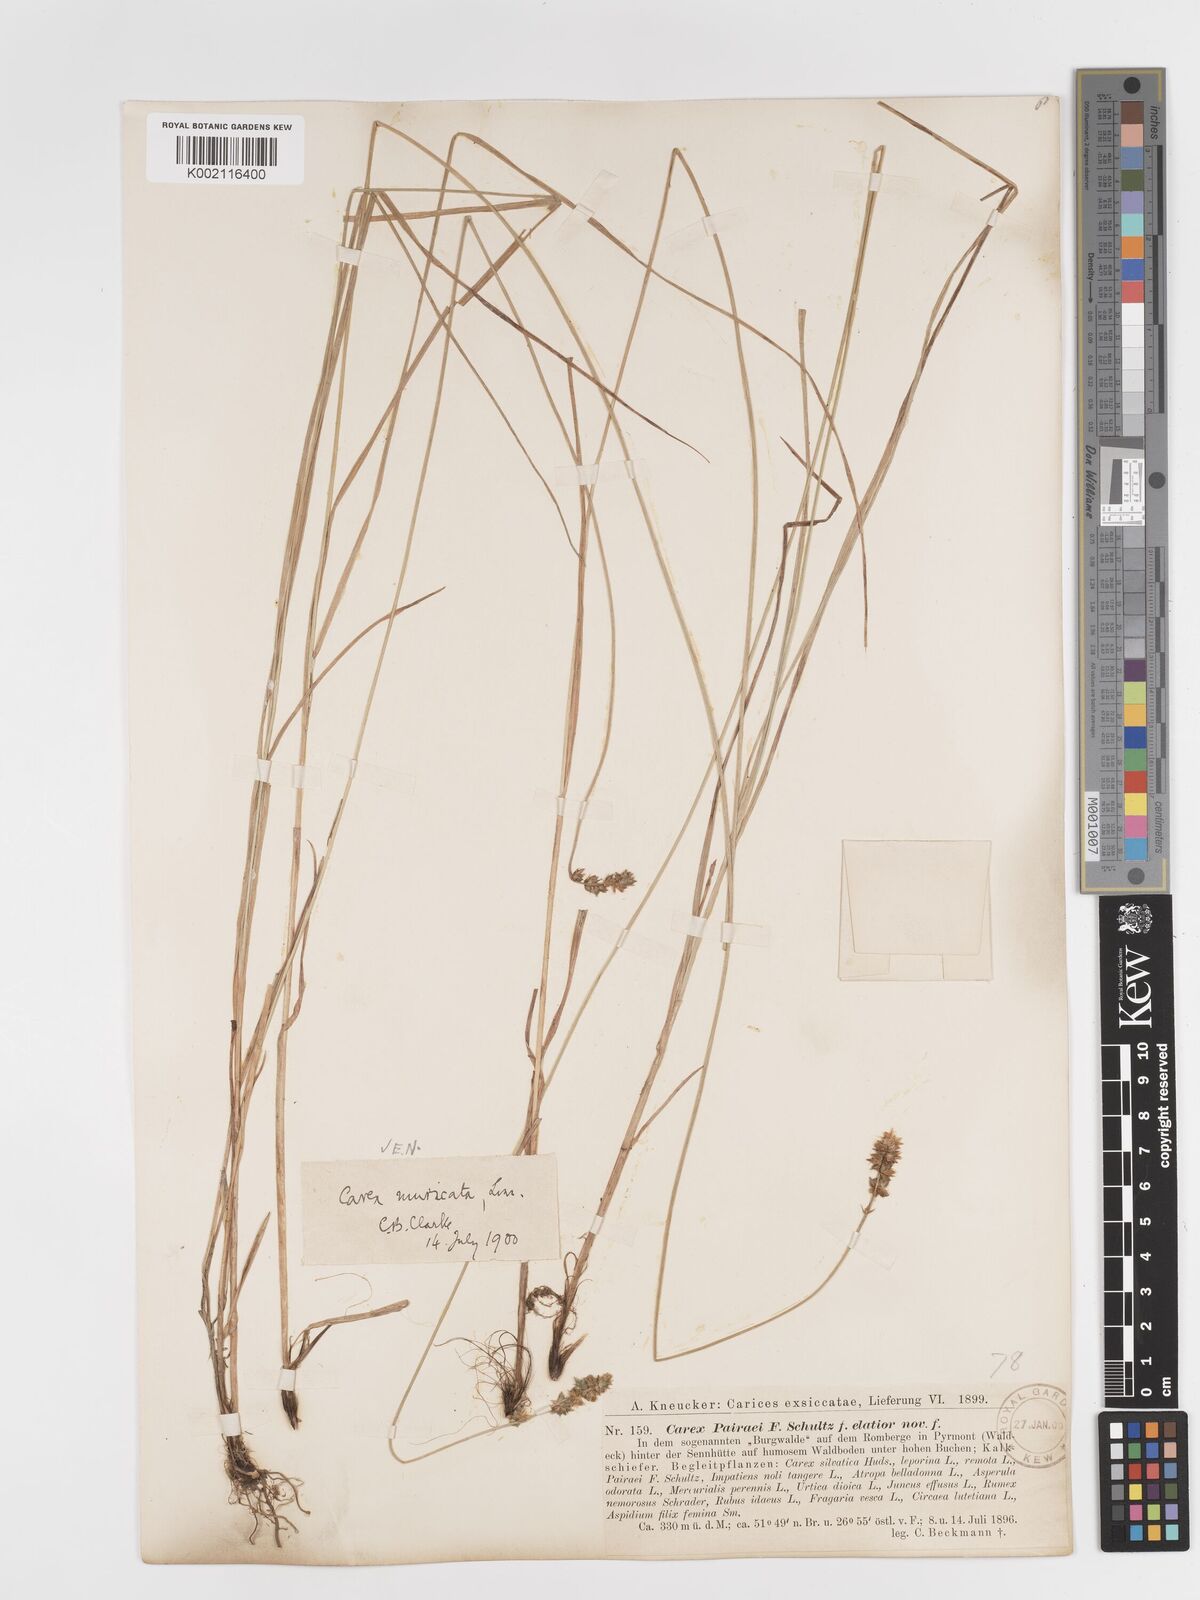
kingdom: Plantae
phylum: Tracheophyta
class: Liliopsida
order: Poales
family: Cyperaceae
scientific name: Cyperaceae
